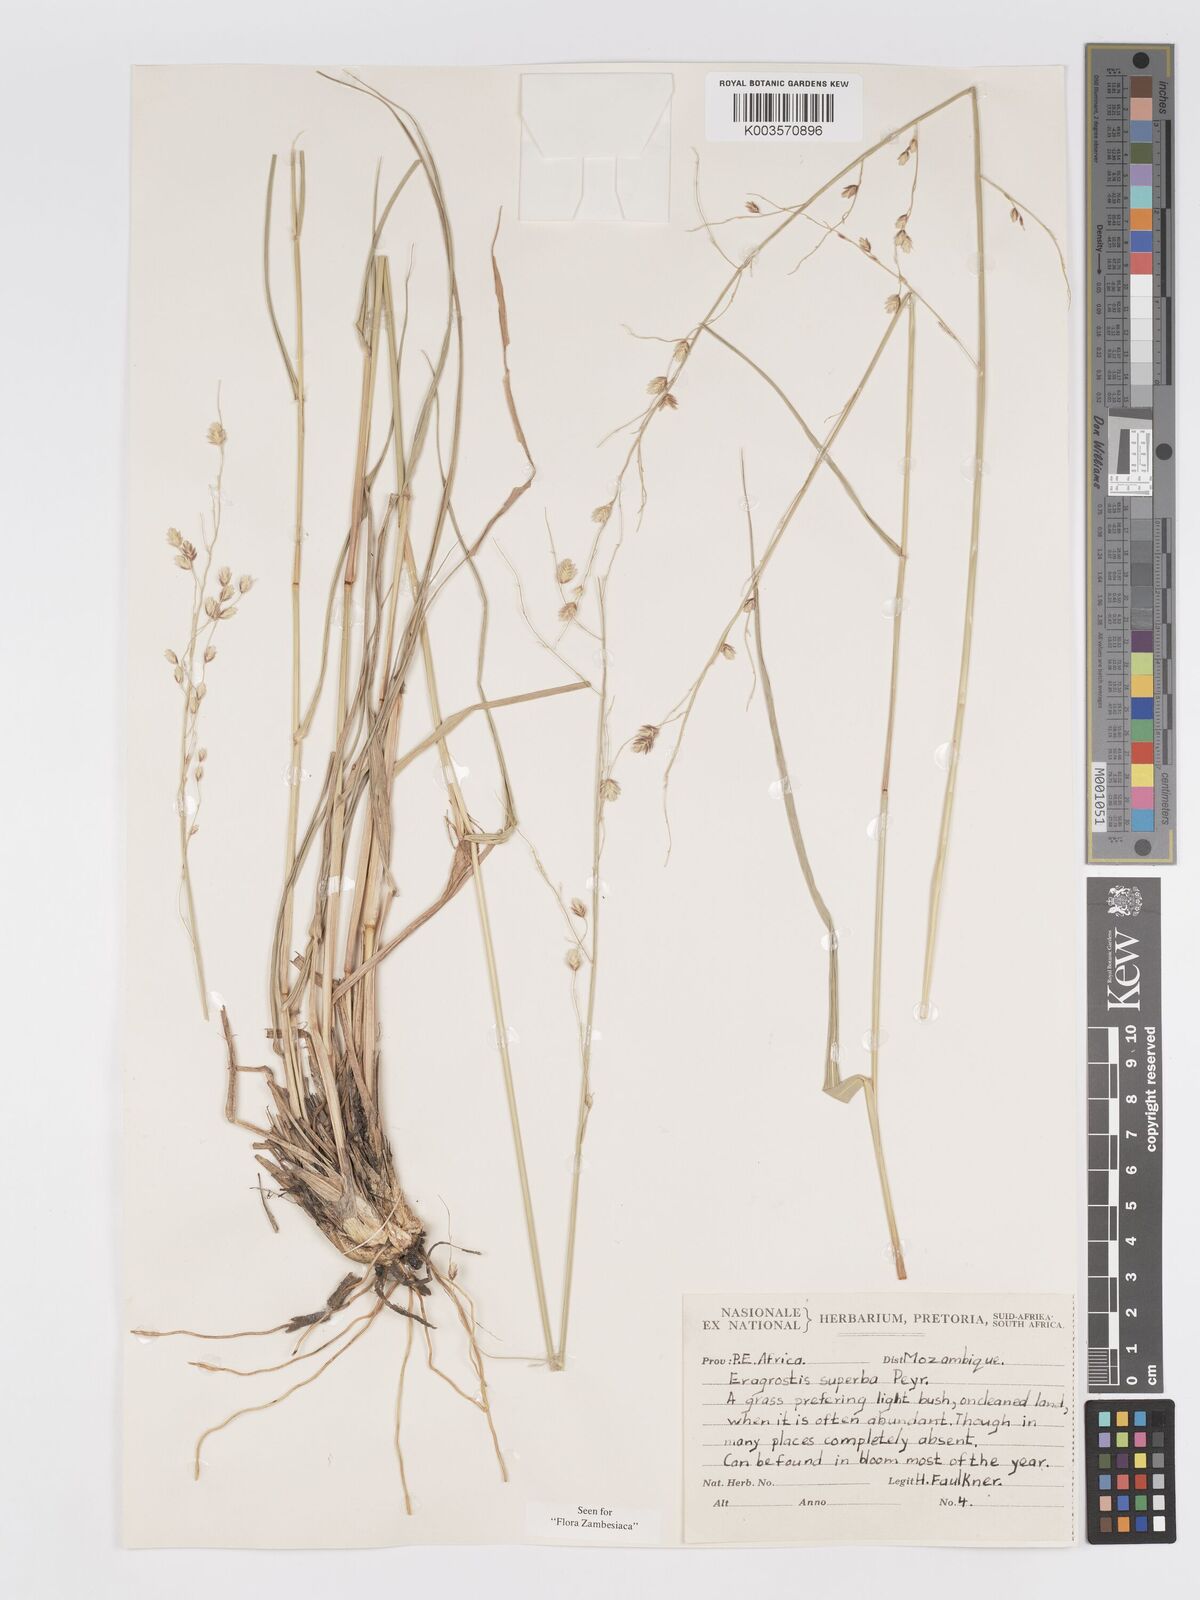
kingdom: Plantae
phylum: Tracheophyta
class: Liliopsida
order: Poales
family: Poaceae
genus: Eragrostis
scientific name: Eragrostis superba
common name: Wilman lovegrass
